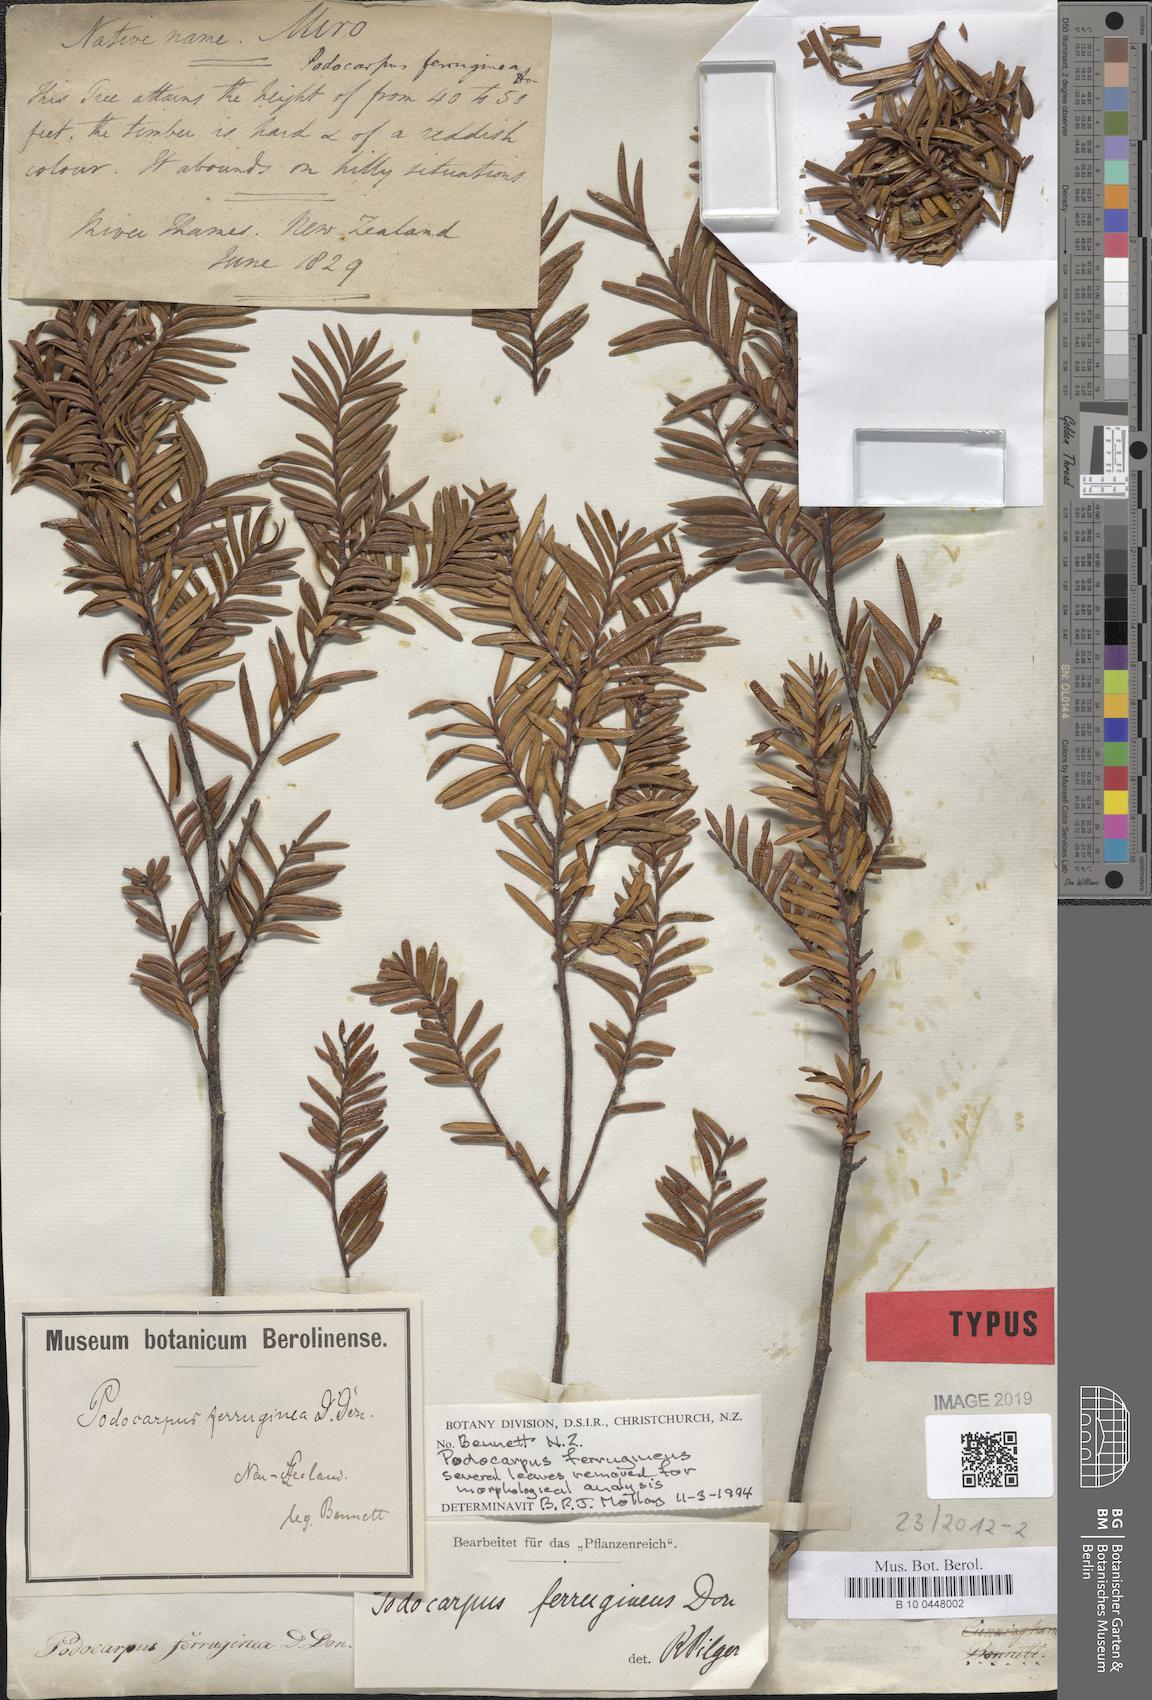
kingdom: Plantae
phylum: Tracheophyta
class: Pinopsida
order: Pinales
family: Podocarpaceae
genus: Prumnopitys
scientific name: Prumnopitys ferruginea
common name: Brown pine
